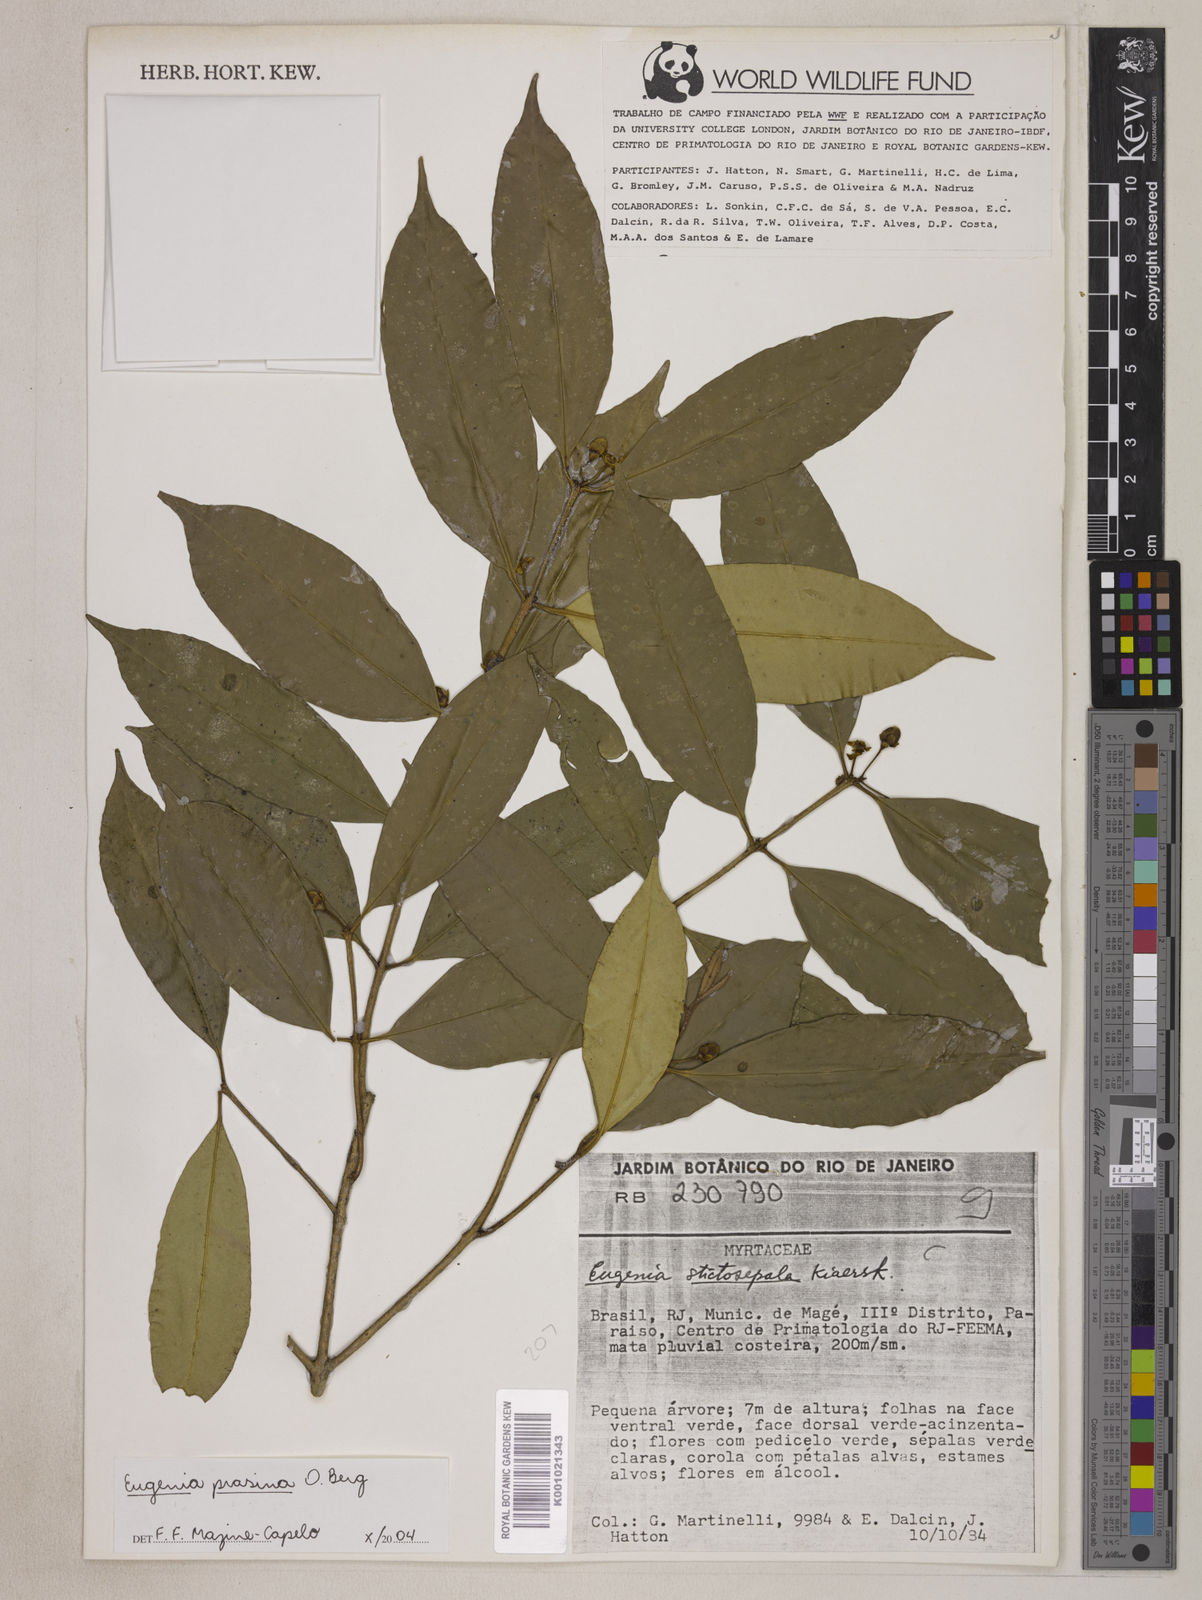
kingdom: Plantae
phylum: Tracheophyta
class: Magnoliopsida
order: Myrtales
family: Myrtaceae
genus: Eugenia
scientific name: Eugenia prasina
